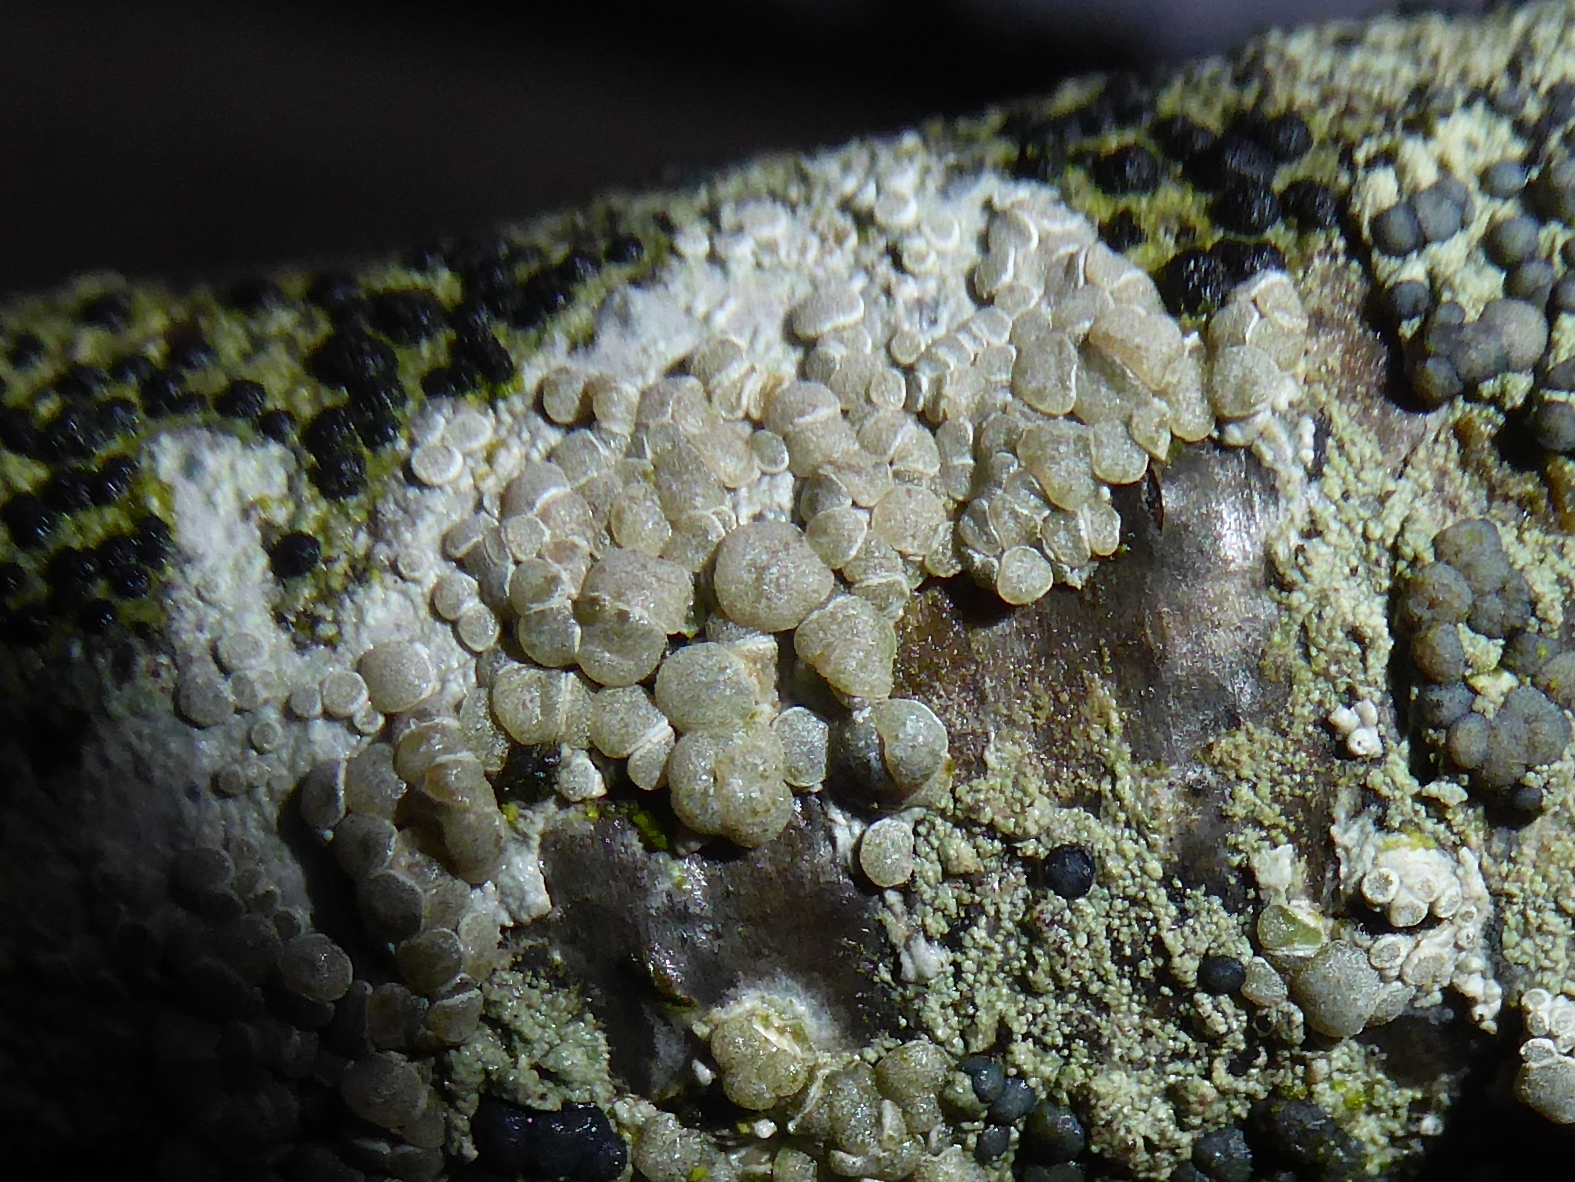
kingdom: Fungi
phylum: Ascomycota
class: Lecanoromycetes
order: Lecanorales
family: Lecanoraceae
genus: Glaucomaria
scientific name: Glaucomaria carpinea
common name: hviddugget kantskivelav
